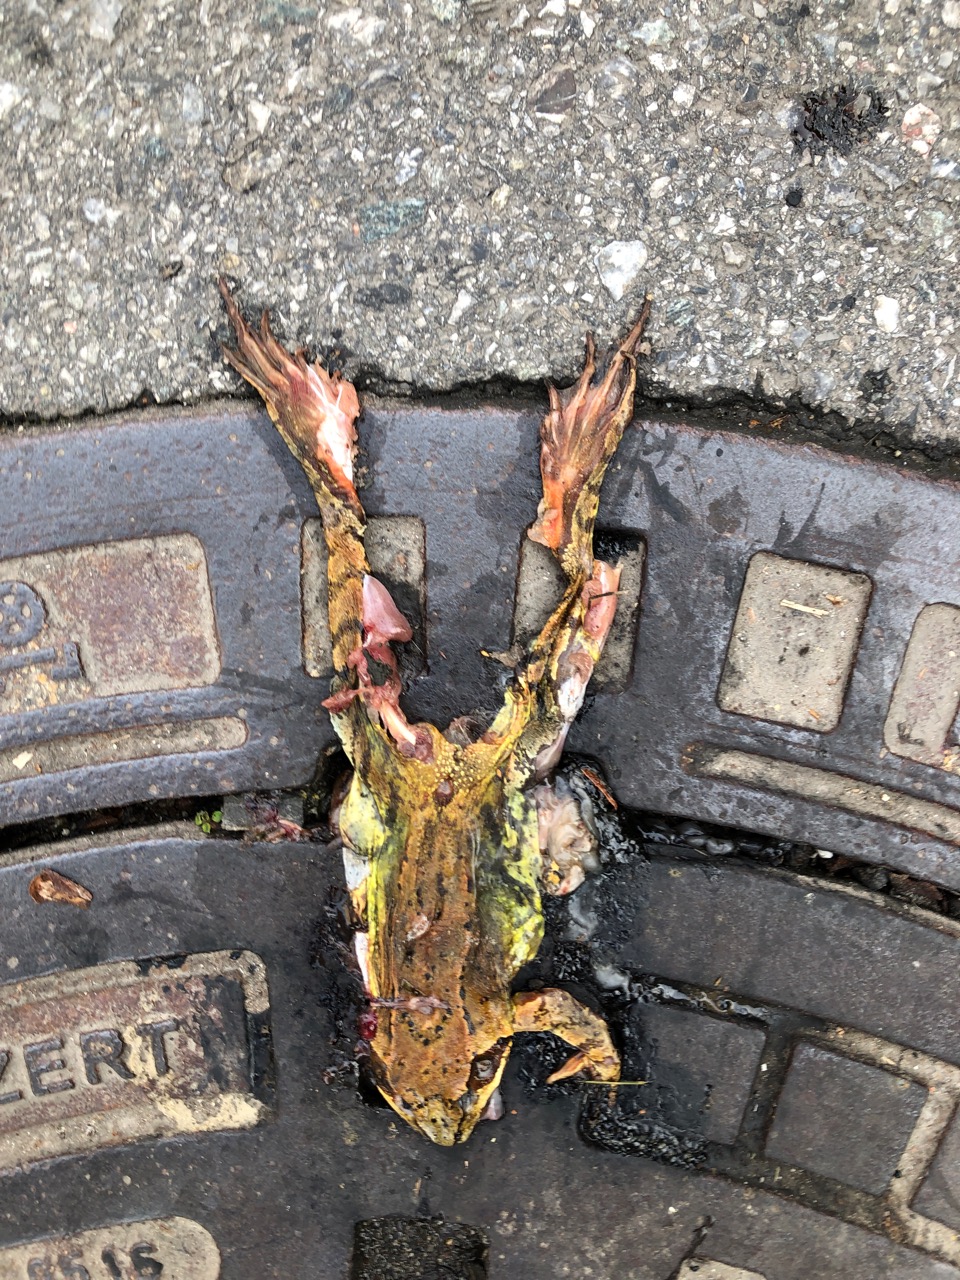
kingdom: Animalia
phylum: Chordata
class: Amphibia
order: Anura
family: Ranidae
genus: Rana
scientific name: Rana temporaria
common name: Common frog
